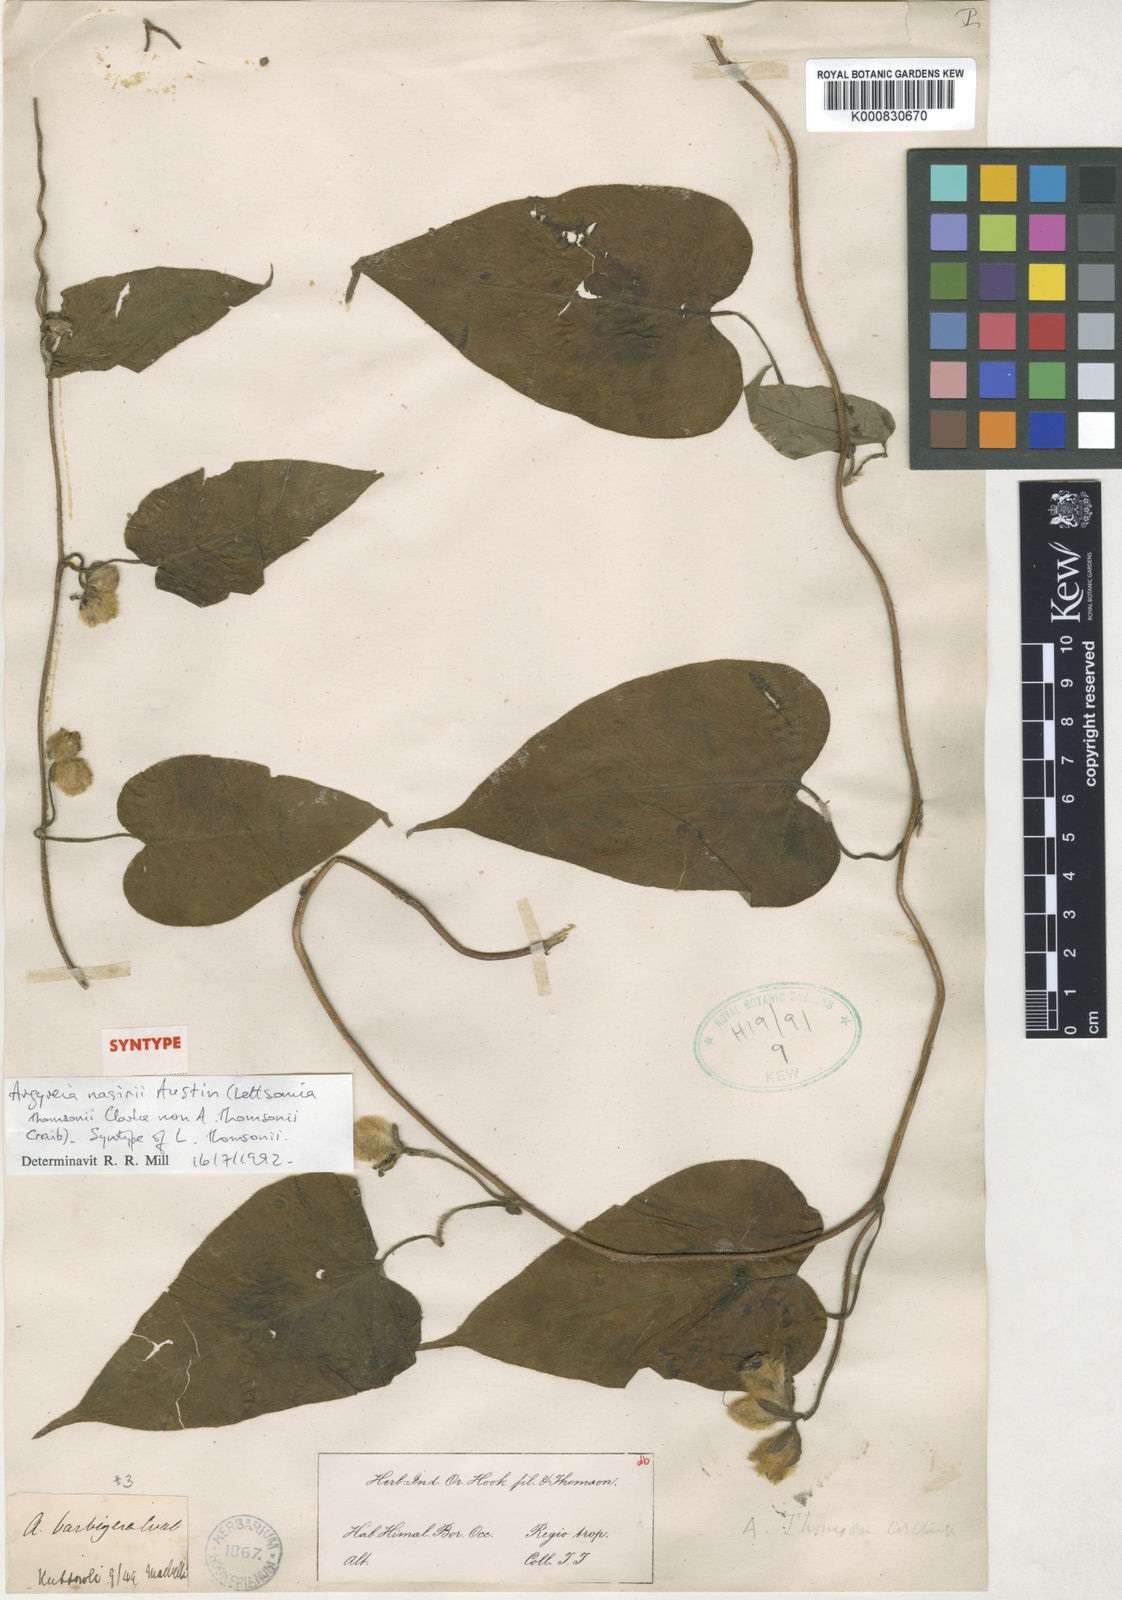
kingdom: Plantae
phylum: Tracheophyta
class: Magnoliopsida
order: Solanales
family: Convolvulaceae
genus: Argyreia
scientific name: Argyreia thomsonii
